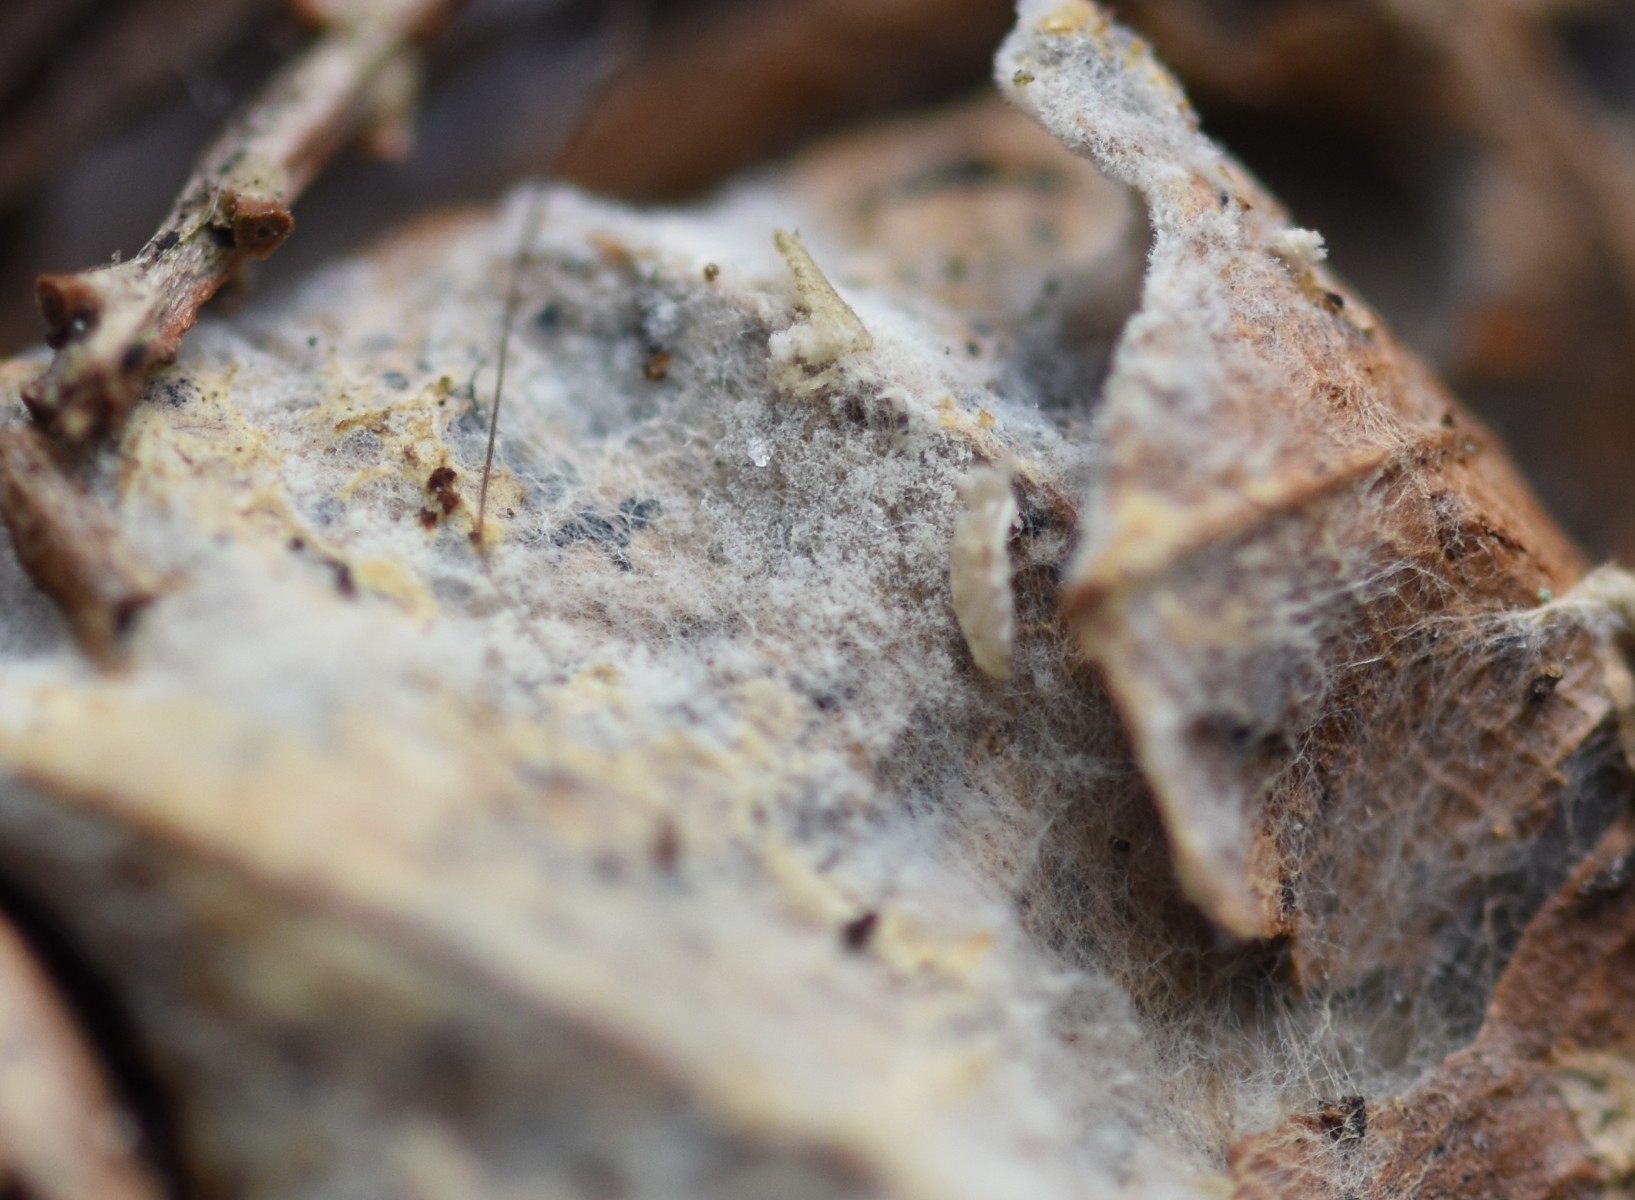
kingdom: Fungi
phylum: Basidiomycota
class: Agaricomycetes
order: Atheliales
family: Atheliaceae
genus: Amphinema
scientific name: Amphinema byssoides
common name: almindelig rodhinde
